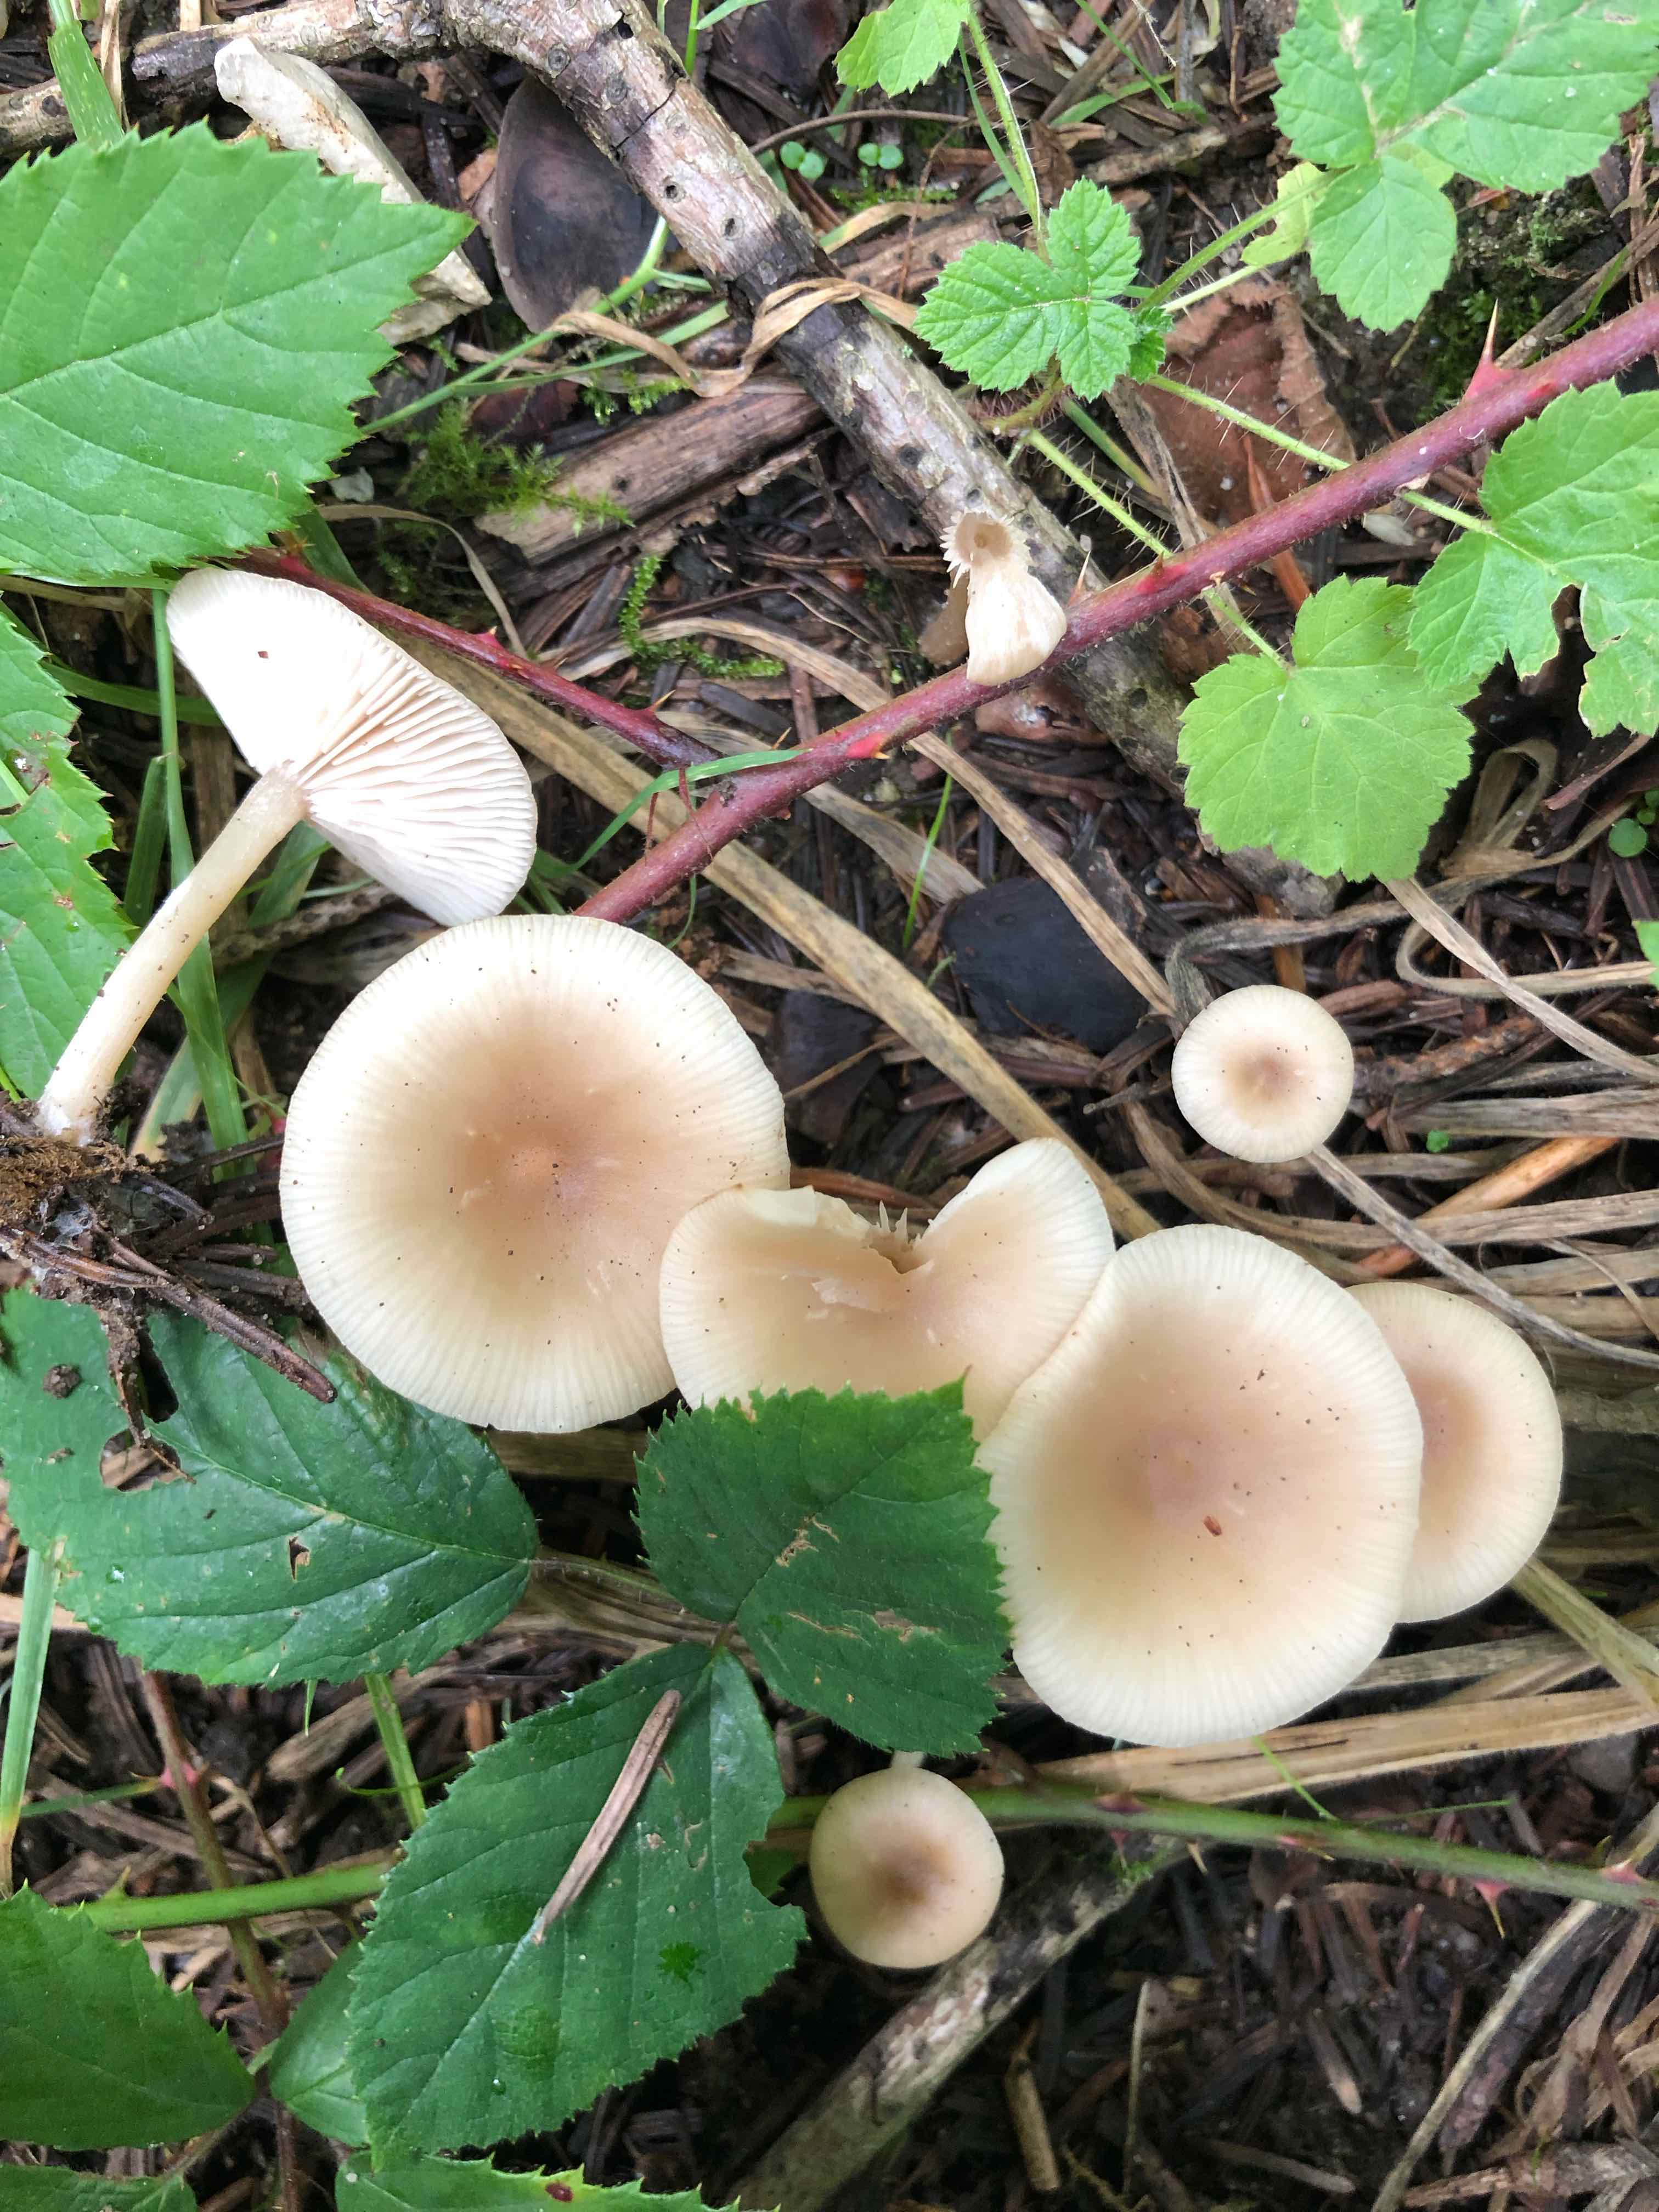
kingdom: Fungi
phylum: Basidiomycota
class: Agaricomycetes
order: Agaricales
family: Tricholomataceae
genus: Clitocybe
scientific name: Clitocybe fragrans
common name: vellugtende tragthat
